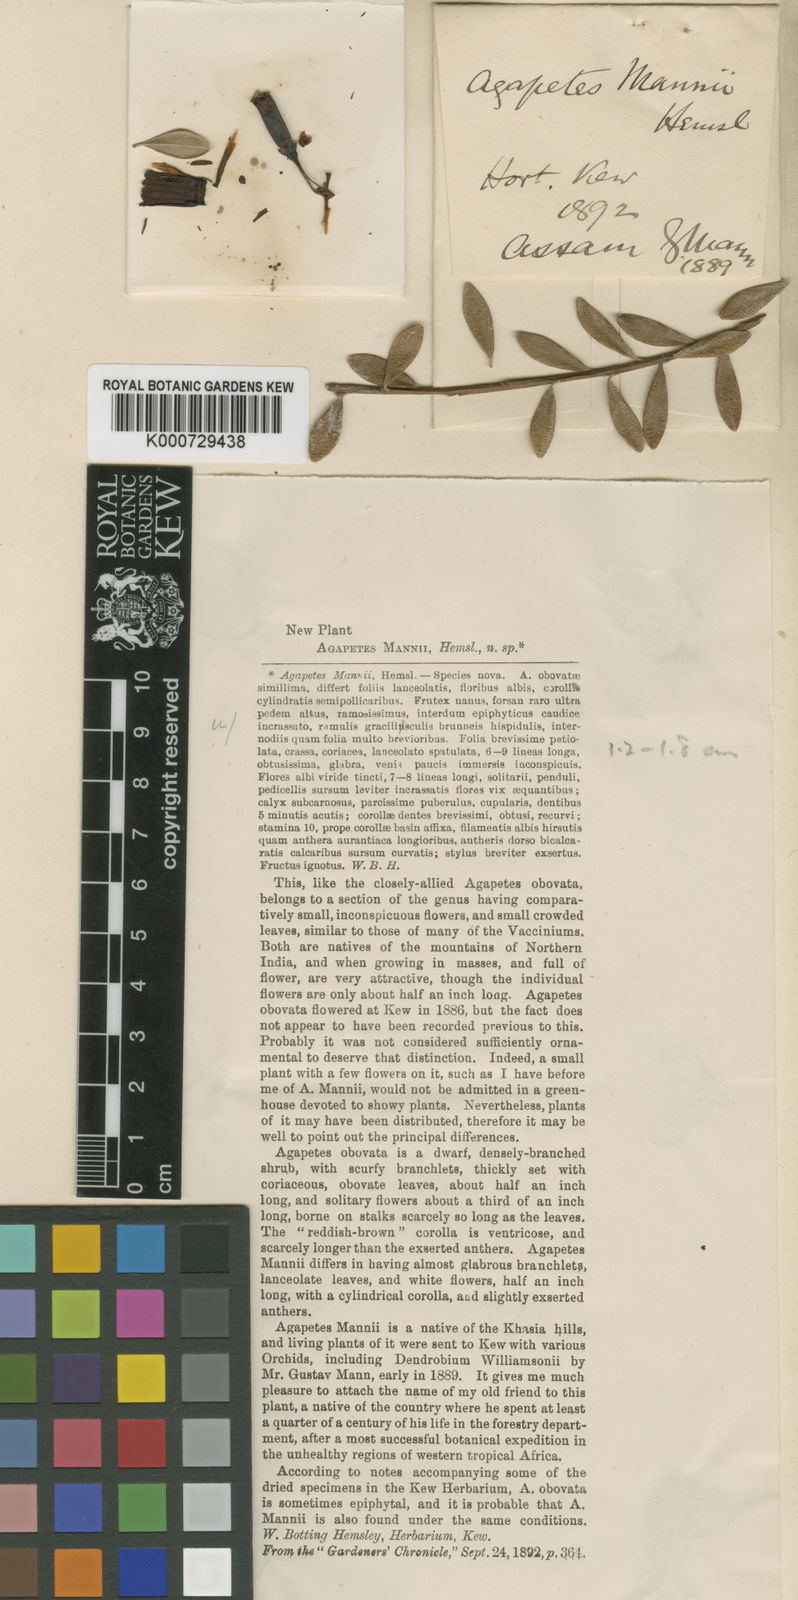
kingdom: Plantae
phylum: Tracheophyta
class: Magnoliopsida
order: Ericales
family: Ericaceae
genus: Agapetes
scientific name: Agapetes mannii
